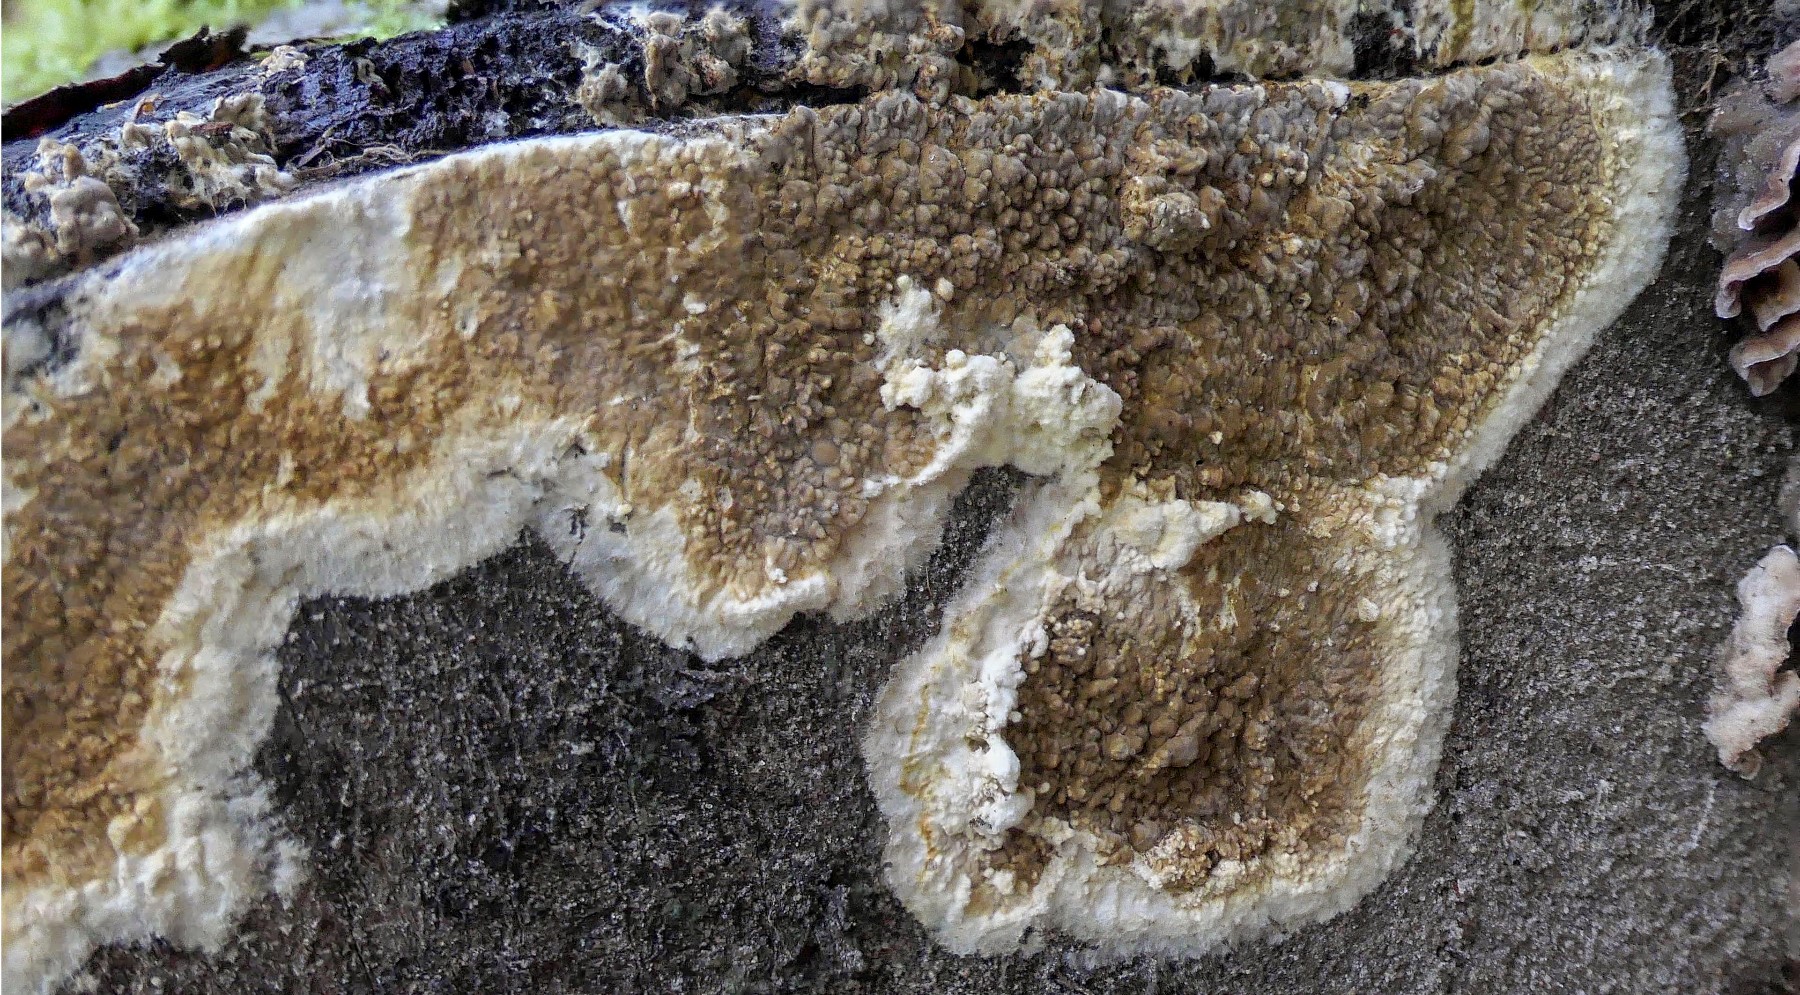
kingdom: Fungi
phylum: Basidiomycota
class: Agaricomycetes
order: Boletales
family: Coniophoraceae
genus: Coniophora
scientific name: Coniophora puteana
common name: gul tømmersvamp
